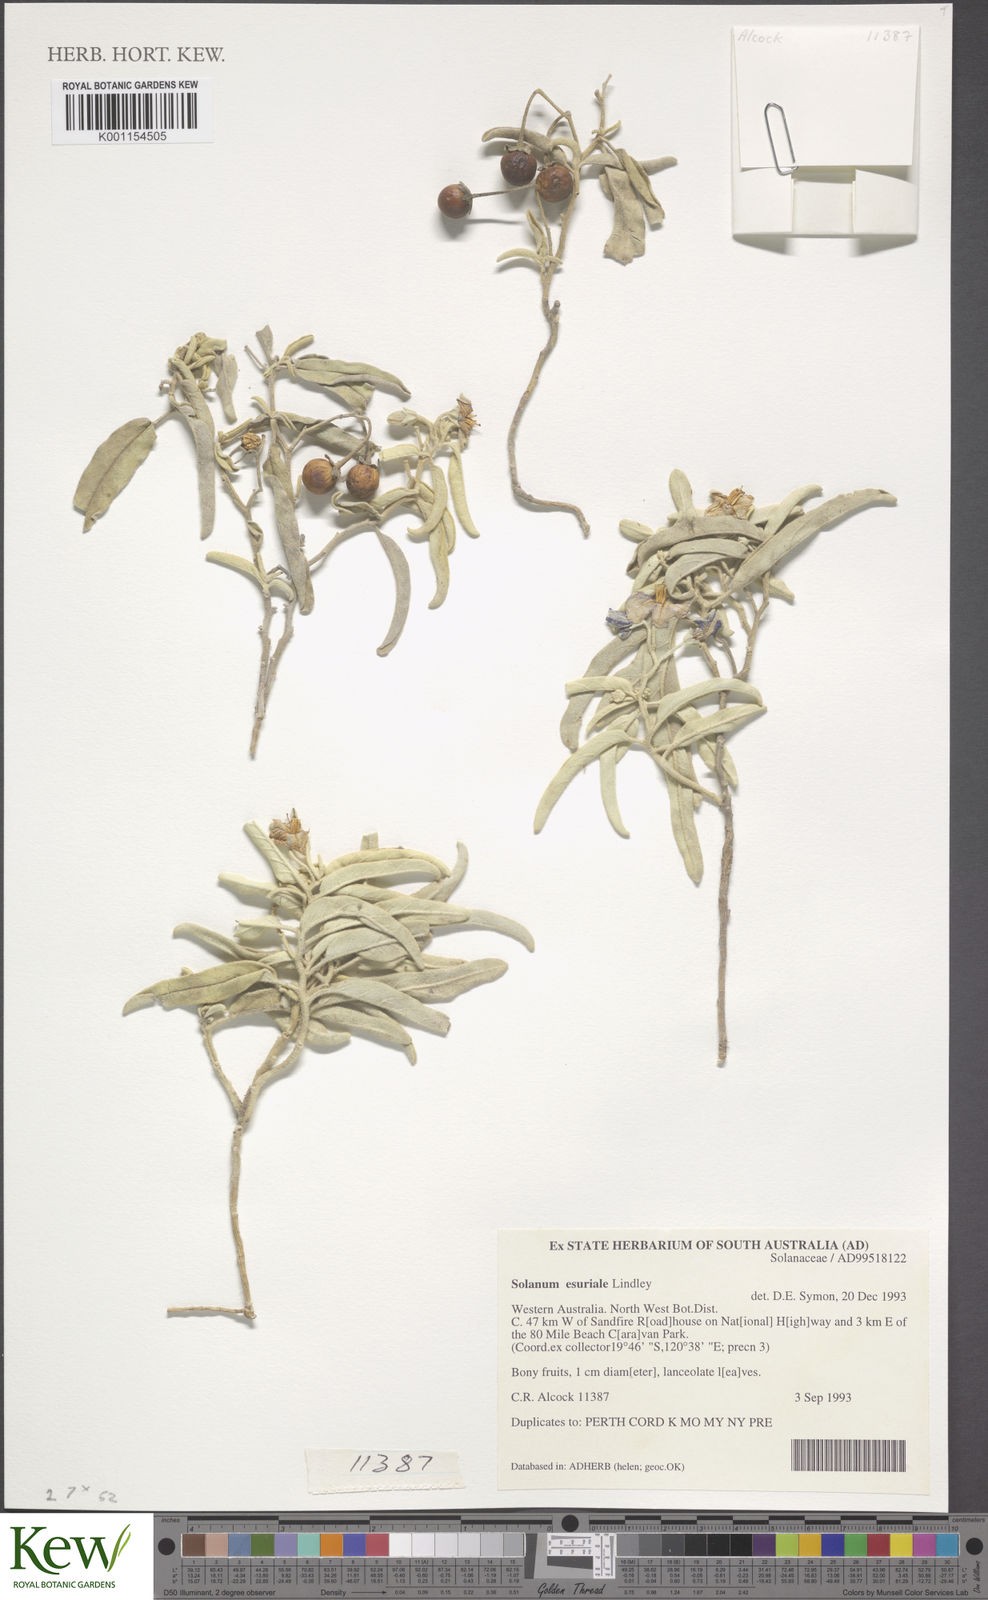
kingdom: Plantae
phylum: Tracheophyta
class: Magnoliopsida
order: Solanales
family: Solanaceae
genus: Solanum
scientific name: Solanum esuriale
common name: Wild tomato
